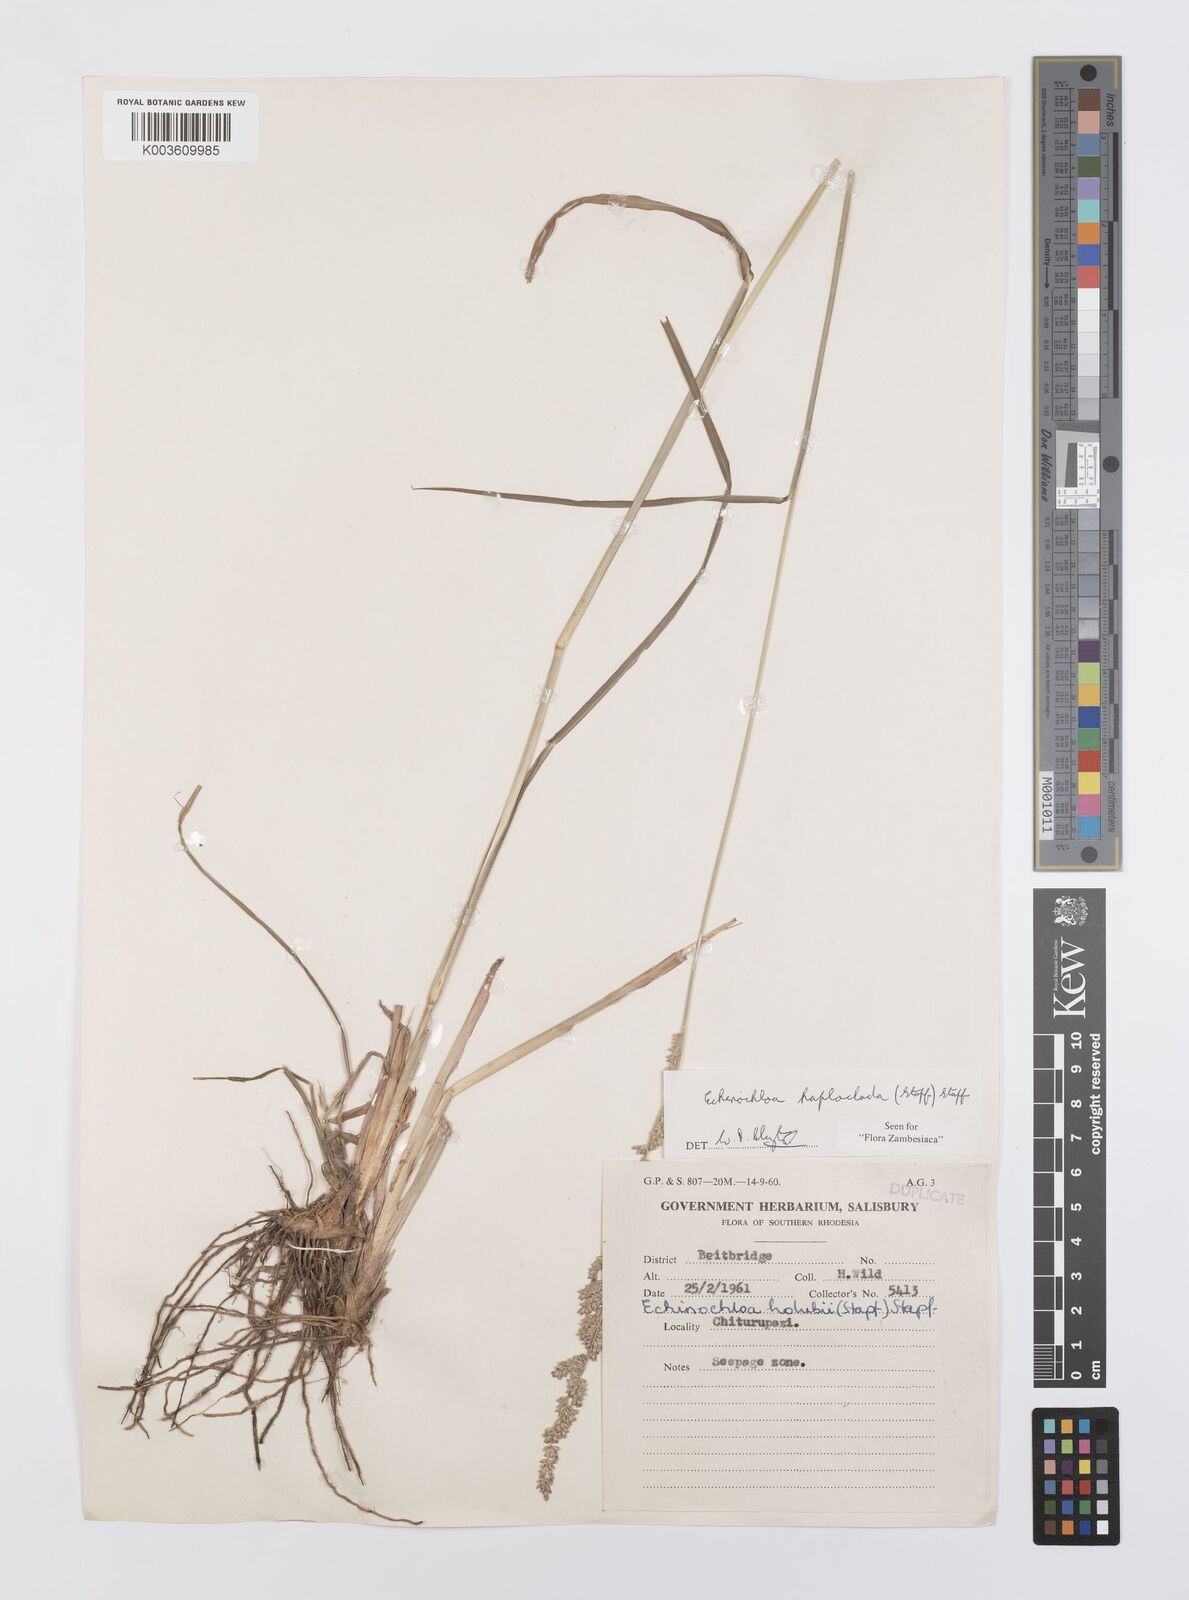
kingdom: Plantae
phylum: Tracheophyta
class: Liliopsida
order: Poales
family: Poaceae
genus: Echinochloa
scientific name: Echinochloa haploclada
